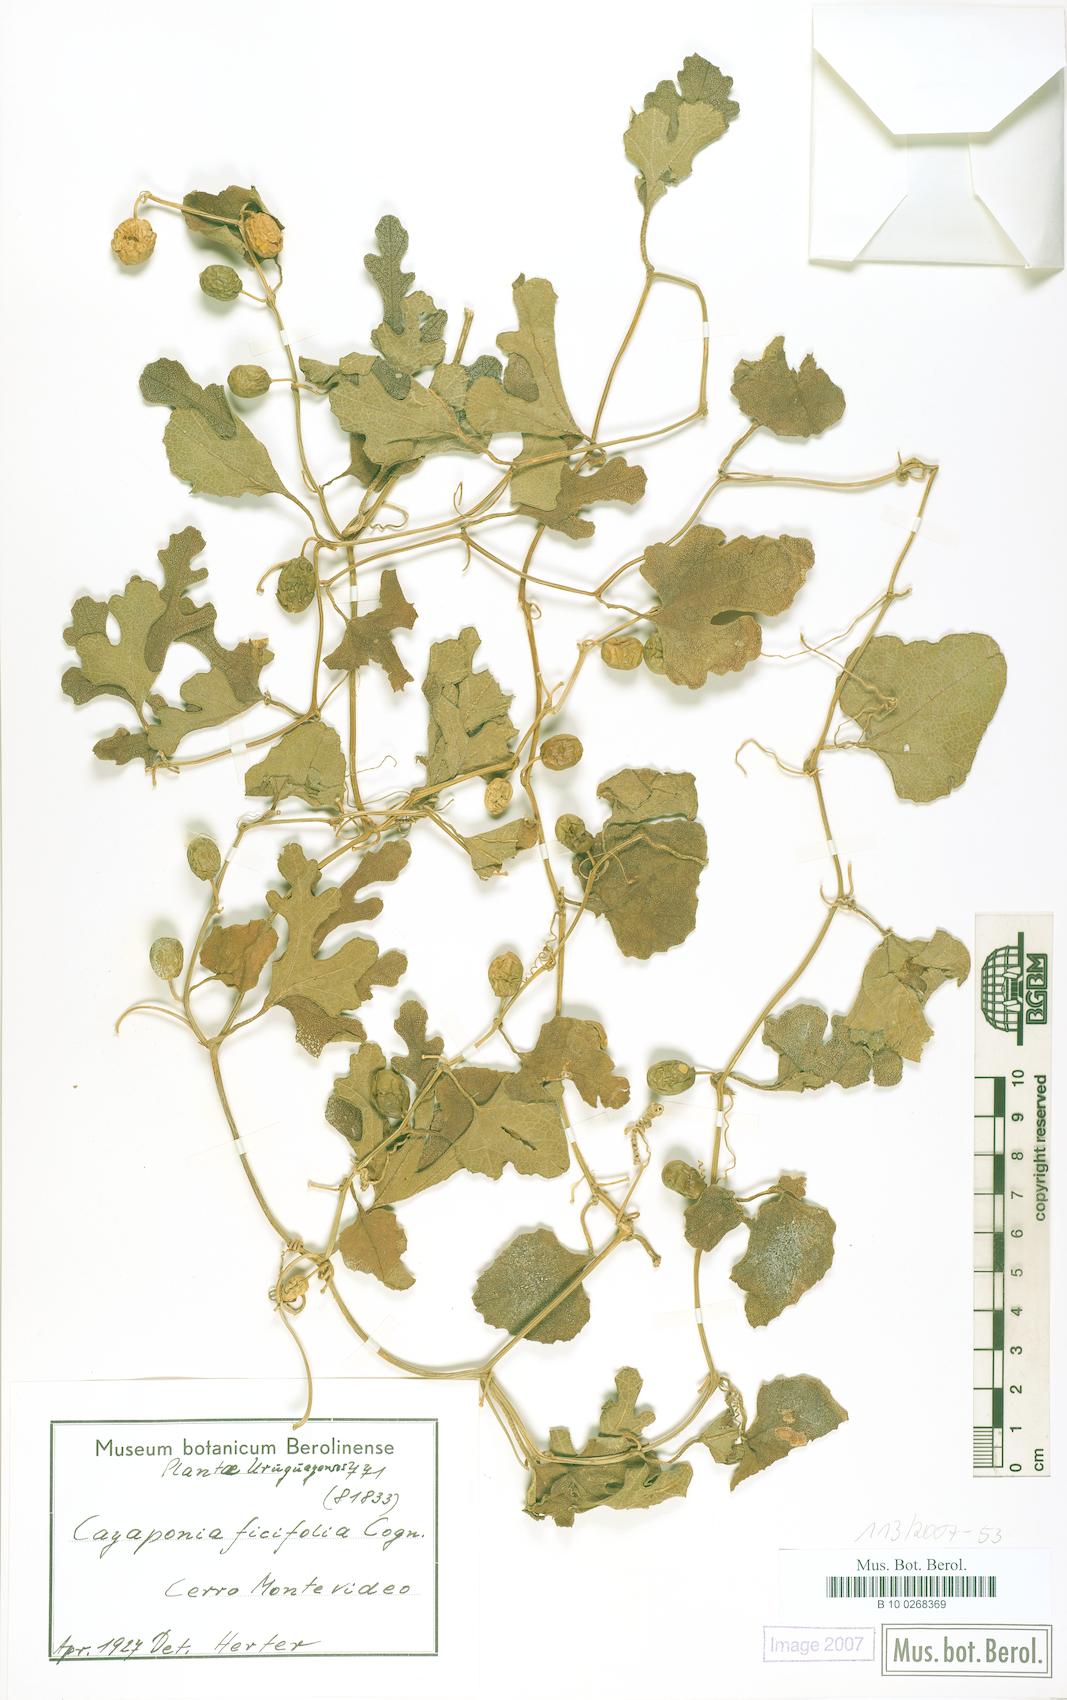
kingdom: Plantae
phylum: Tracheophyta
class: Magnoliopsida
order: Cucurbitales
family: Cucurbitaceae
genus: Cayaponia
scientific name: Cayaponia bonariensis
